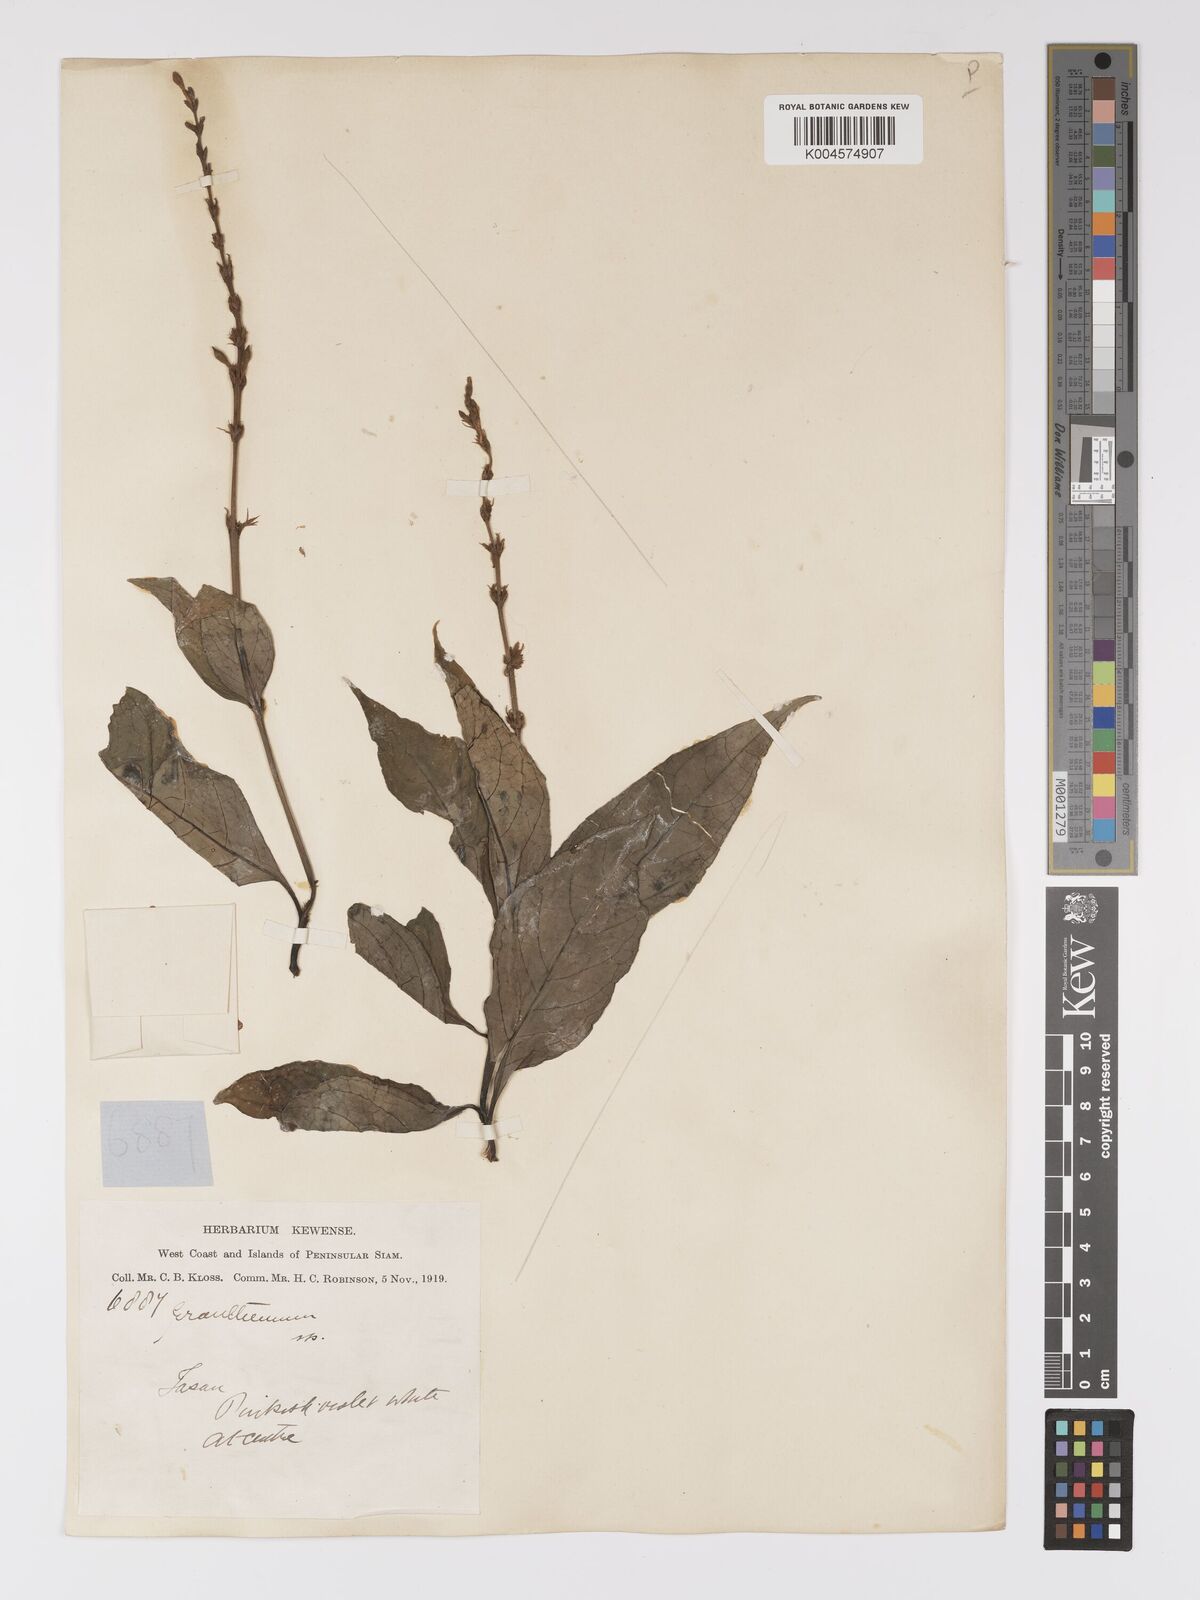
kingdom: Plantae
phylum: Tracheophyta
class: Magnoliopsida
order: Lamiales
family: Acanthaceae
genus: Pseuderanthemum
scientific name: Pseuderanthemum
